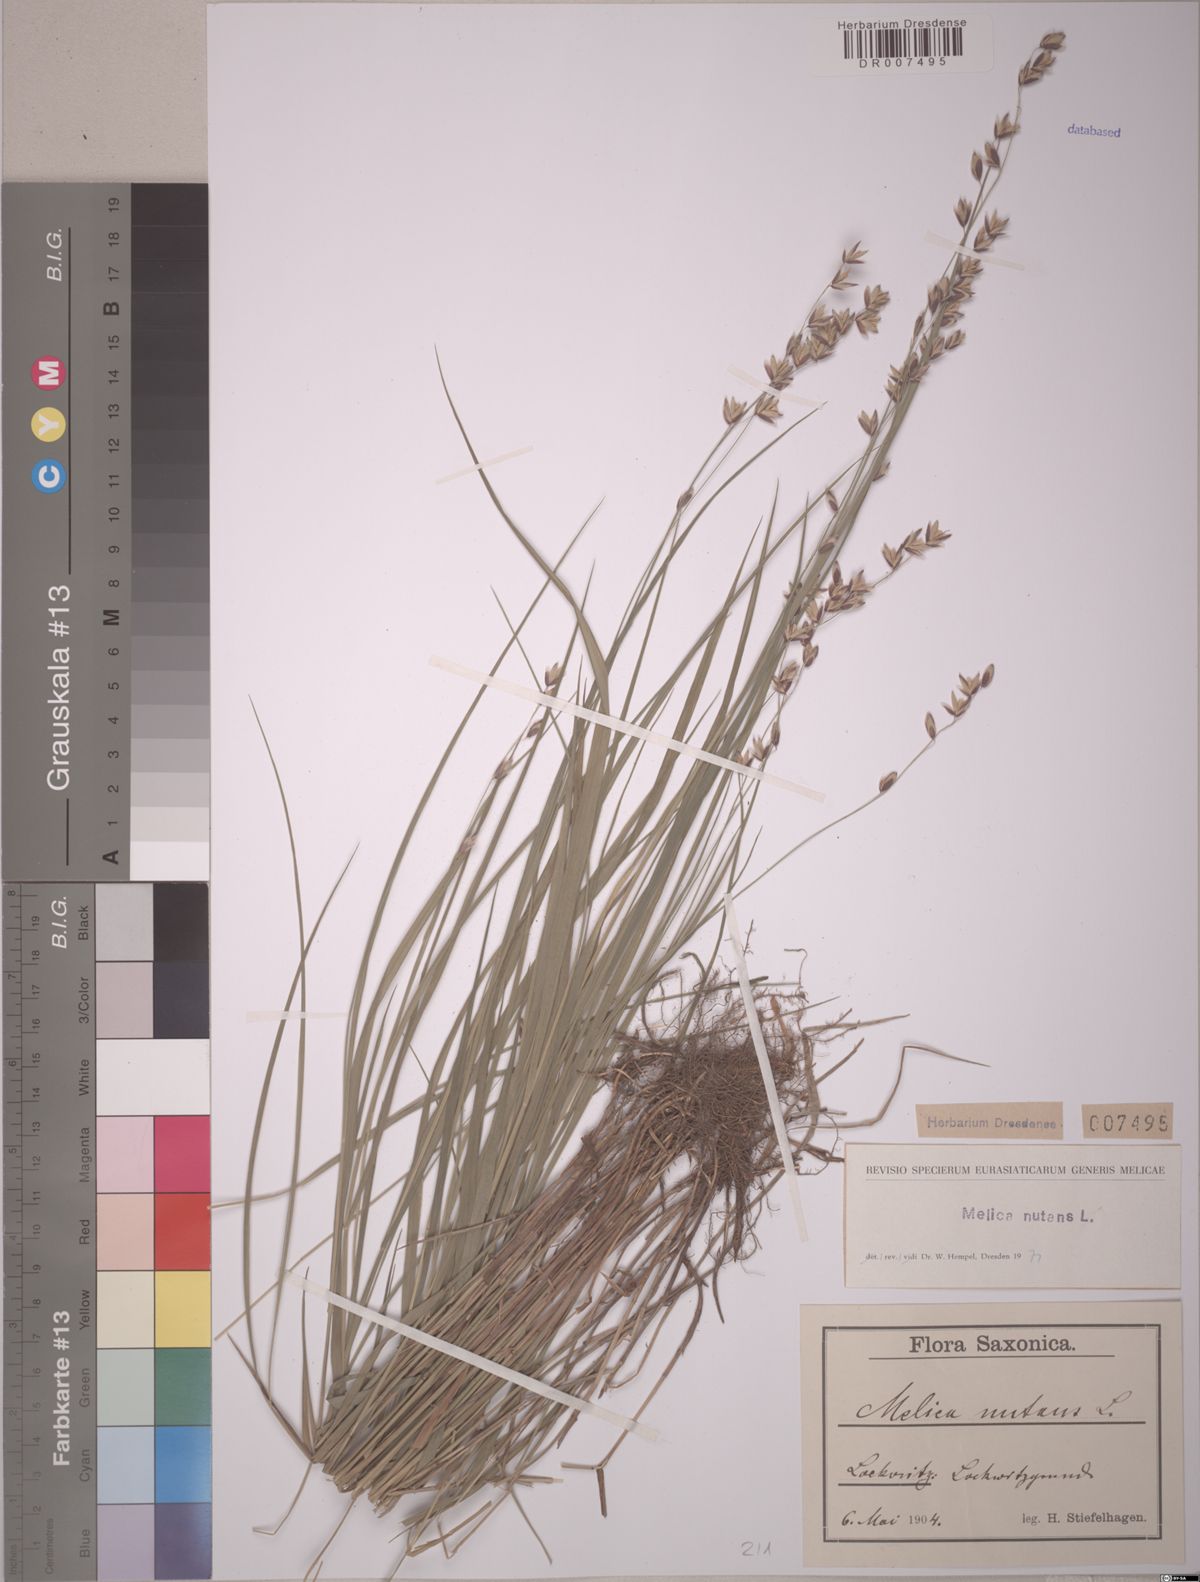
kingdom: Plantae
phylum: Tracheophyta
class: Liliopsida
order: Poales
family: Poaceae
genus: Melica
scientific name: Melica nutans
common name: Mountain melick
